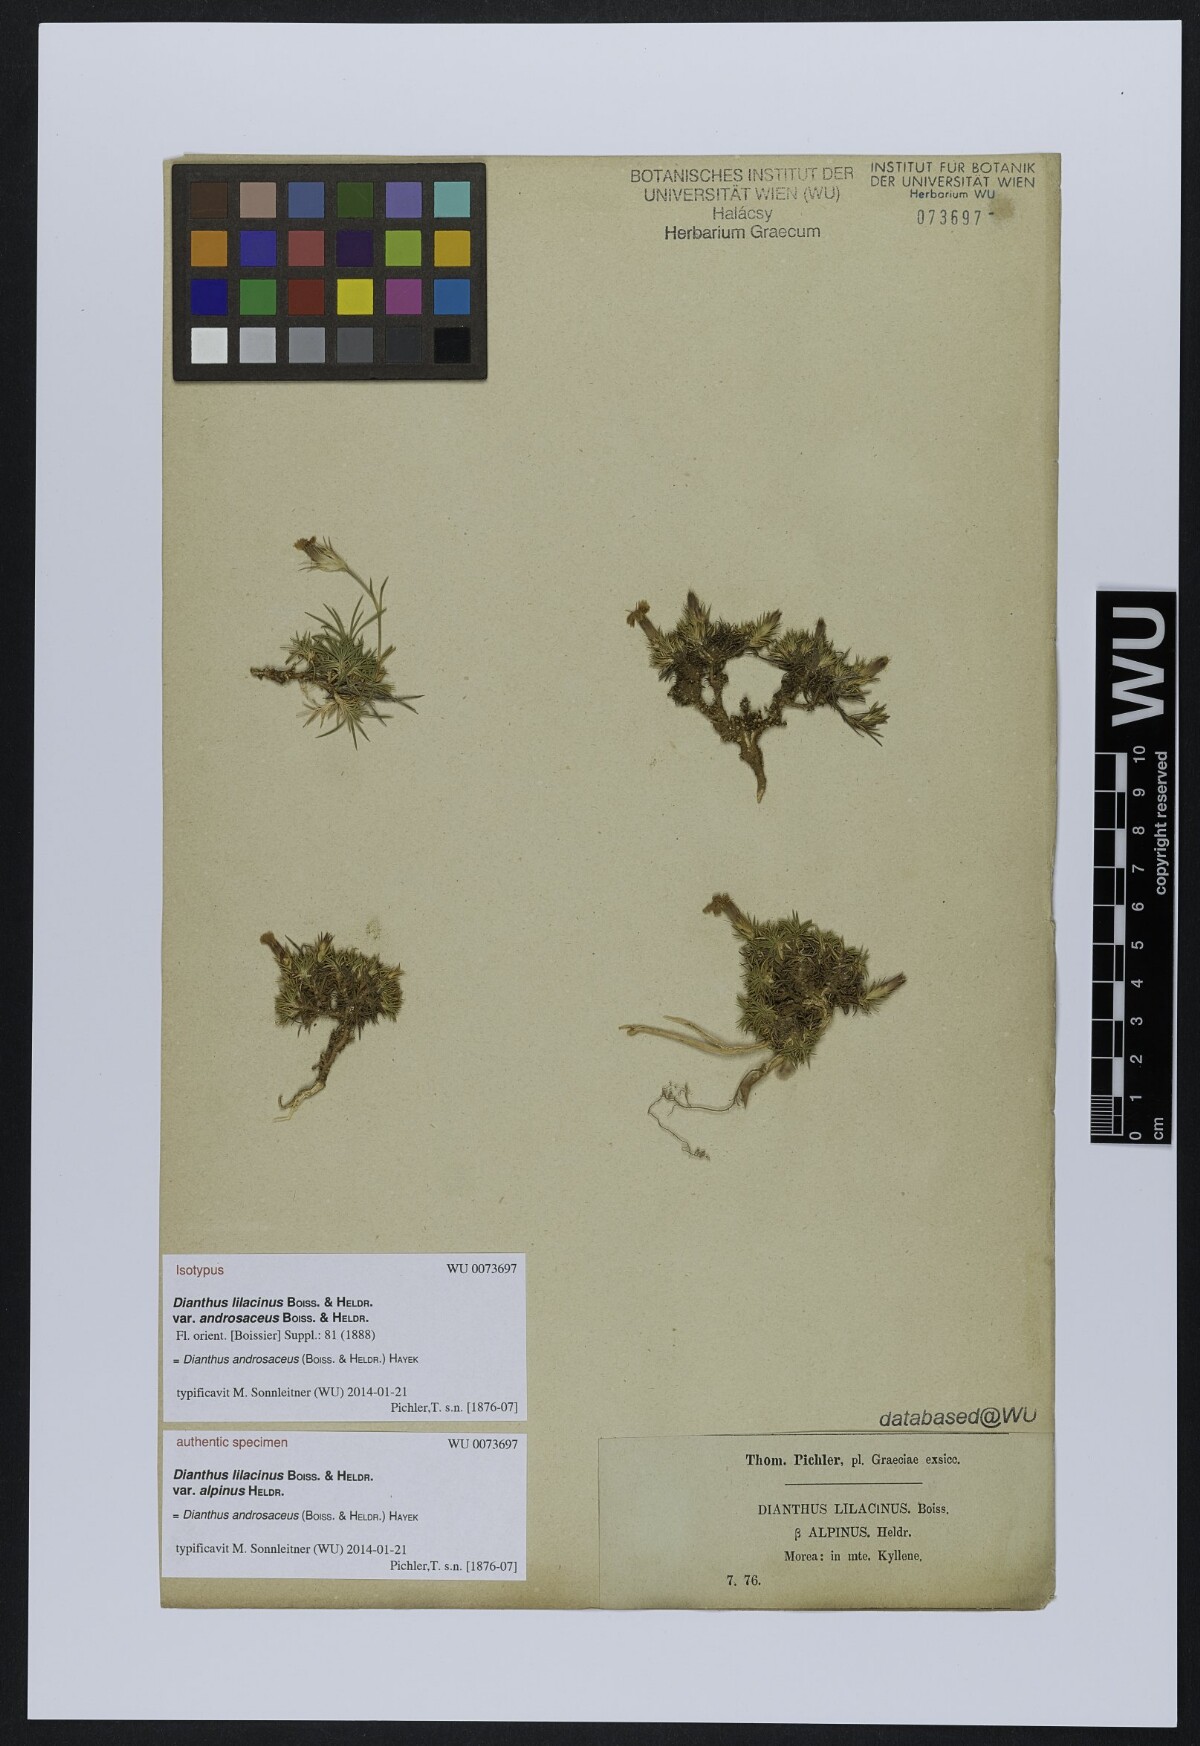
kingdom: Plantae
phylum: Tracheophyta
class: Magnoliopsida
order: Caryophyllales
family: Caryophyllaceae
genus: Dianthus
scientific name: Dianthus androsaceus
